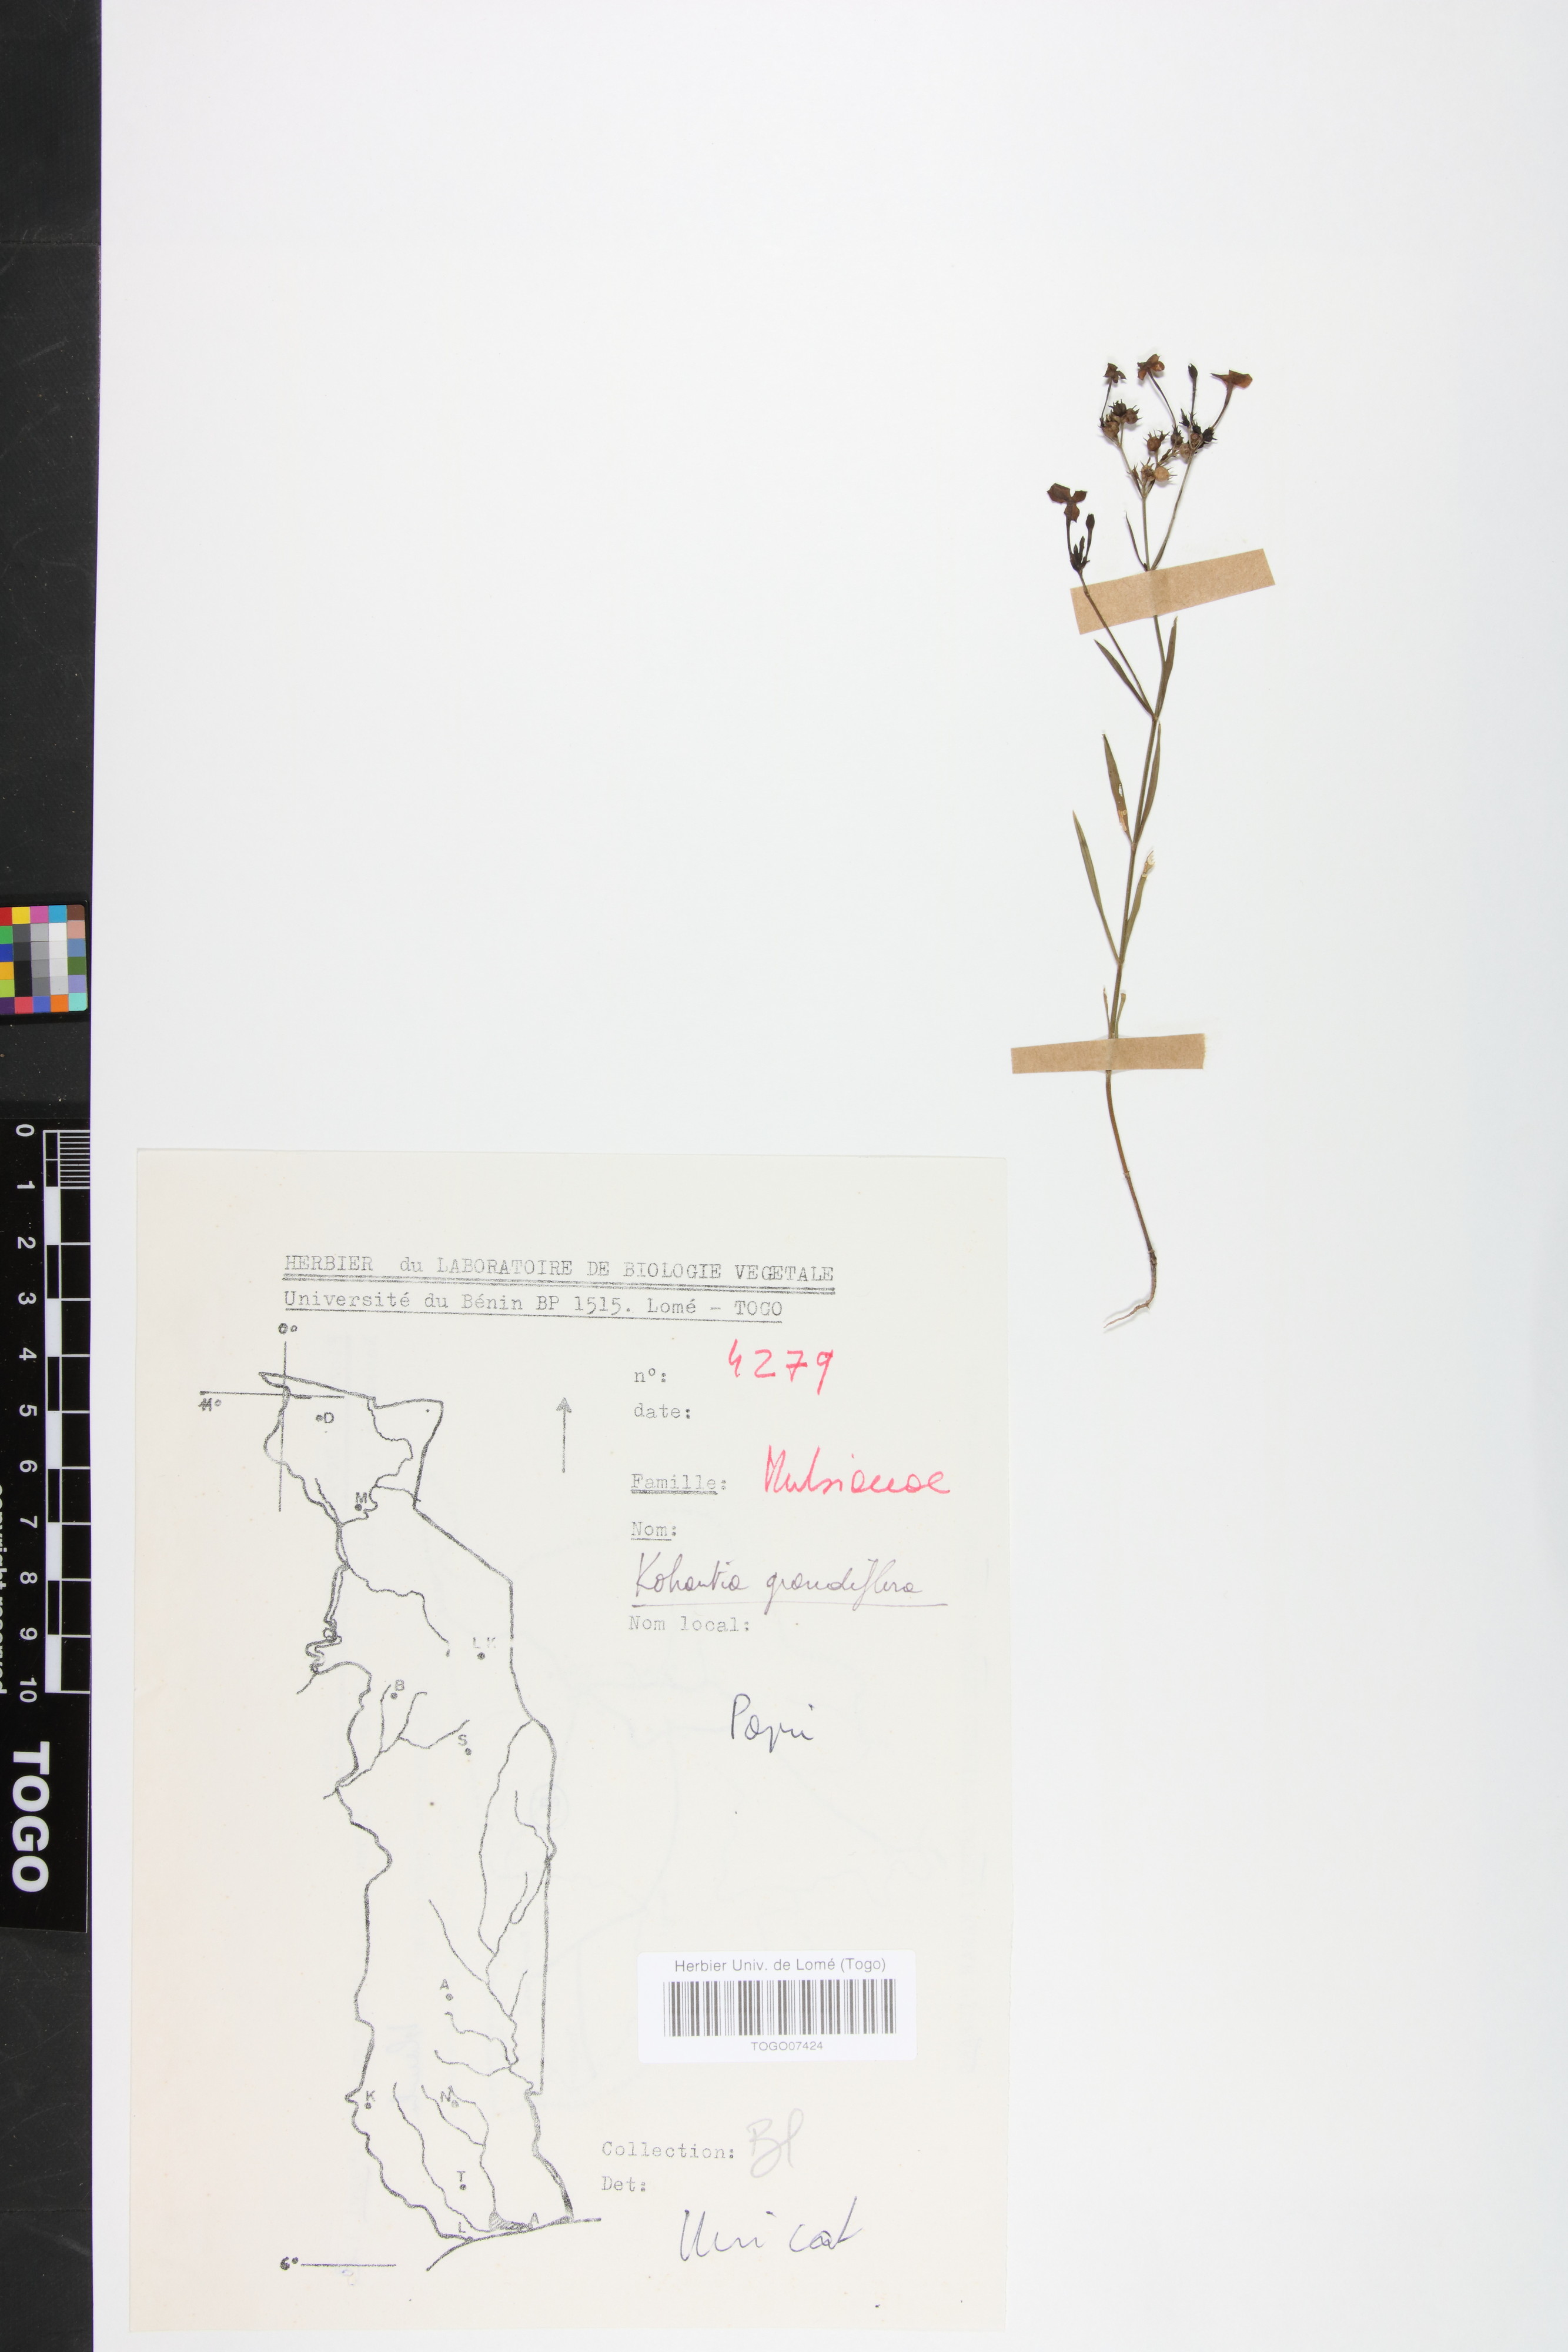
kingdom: Plantae
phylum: Tracheophyta
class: Magnoliopsida
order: Gentianales
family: Rubiaceae
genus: Kohautia
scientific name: Kohautia grandiflora
